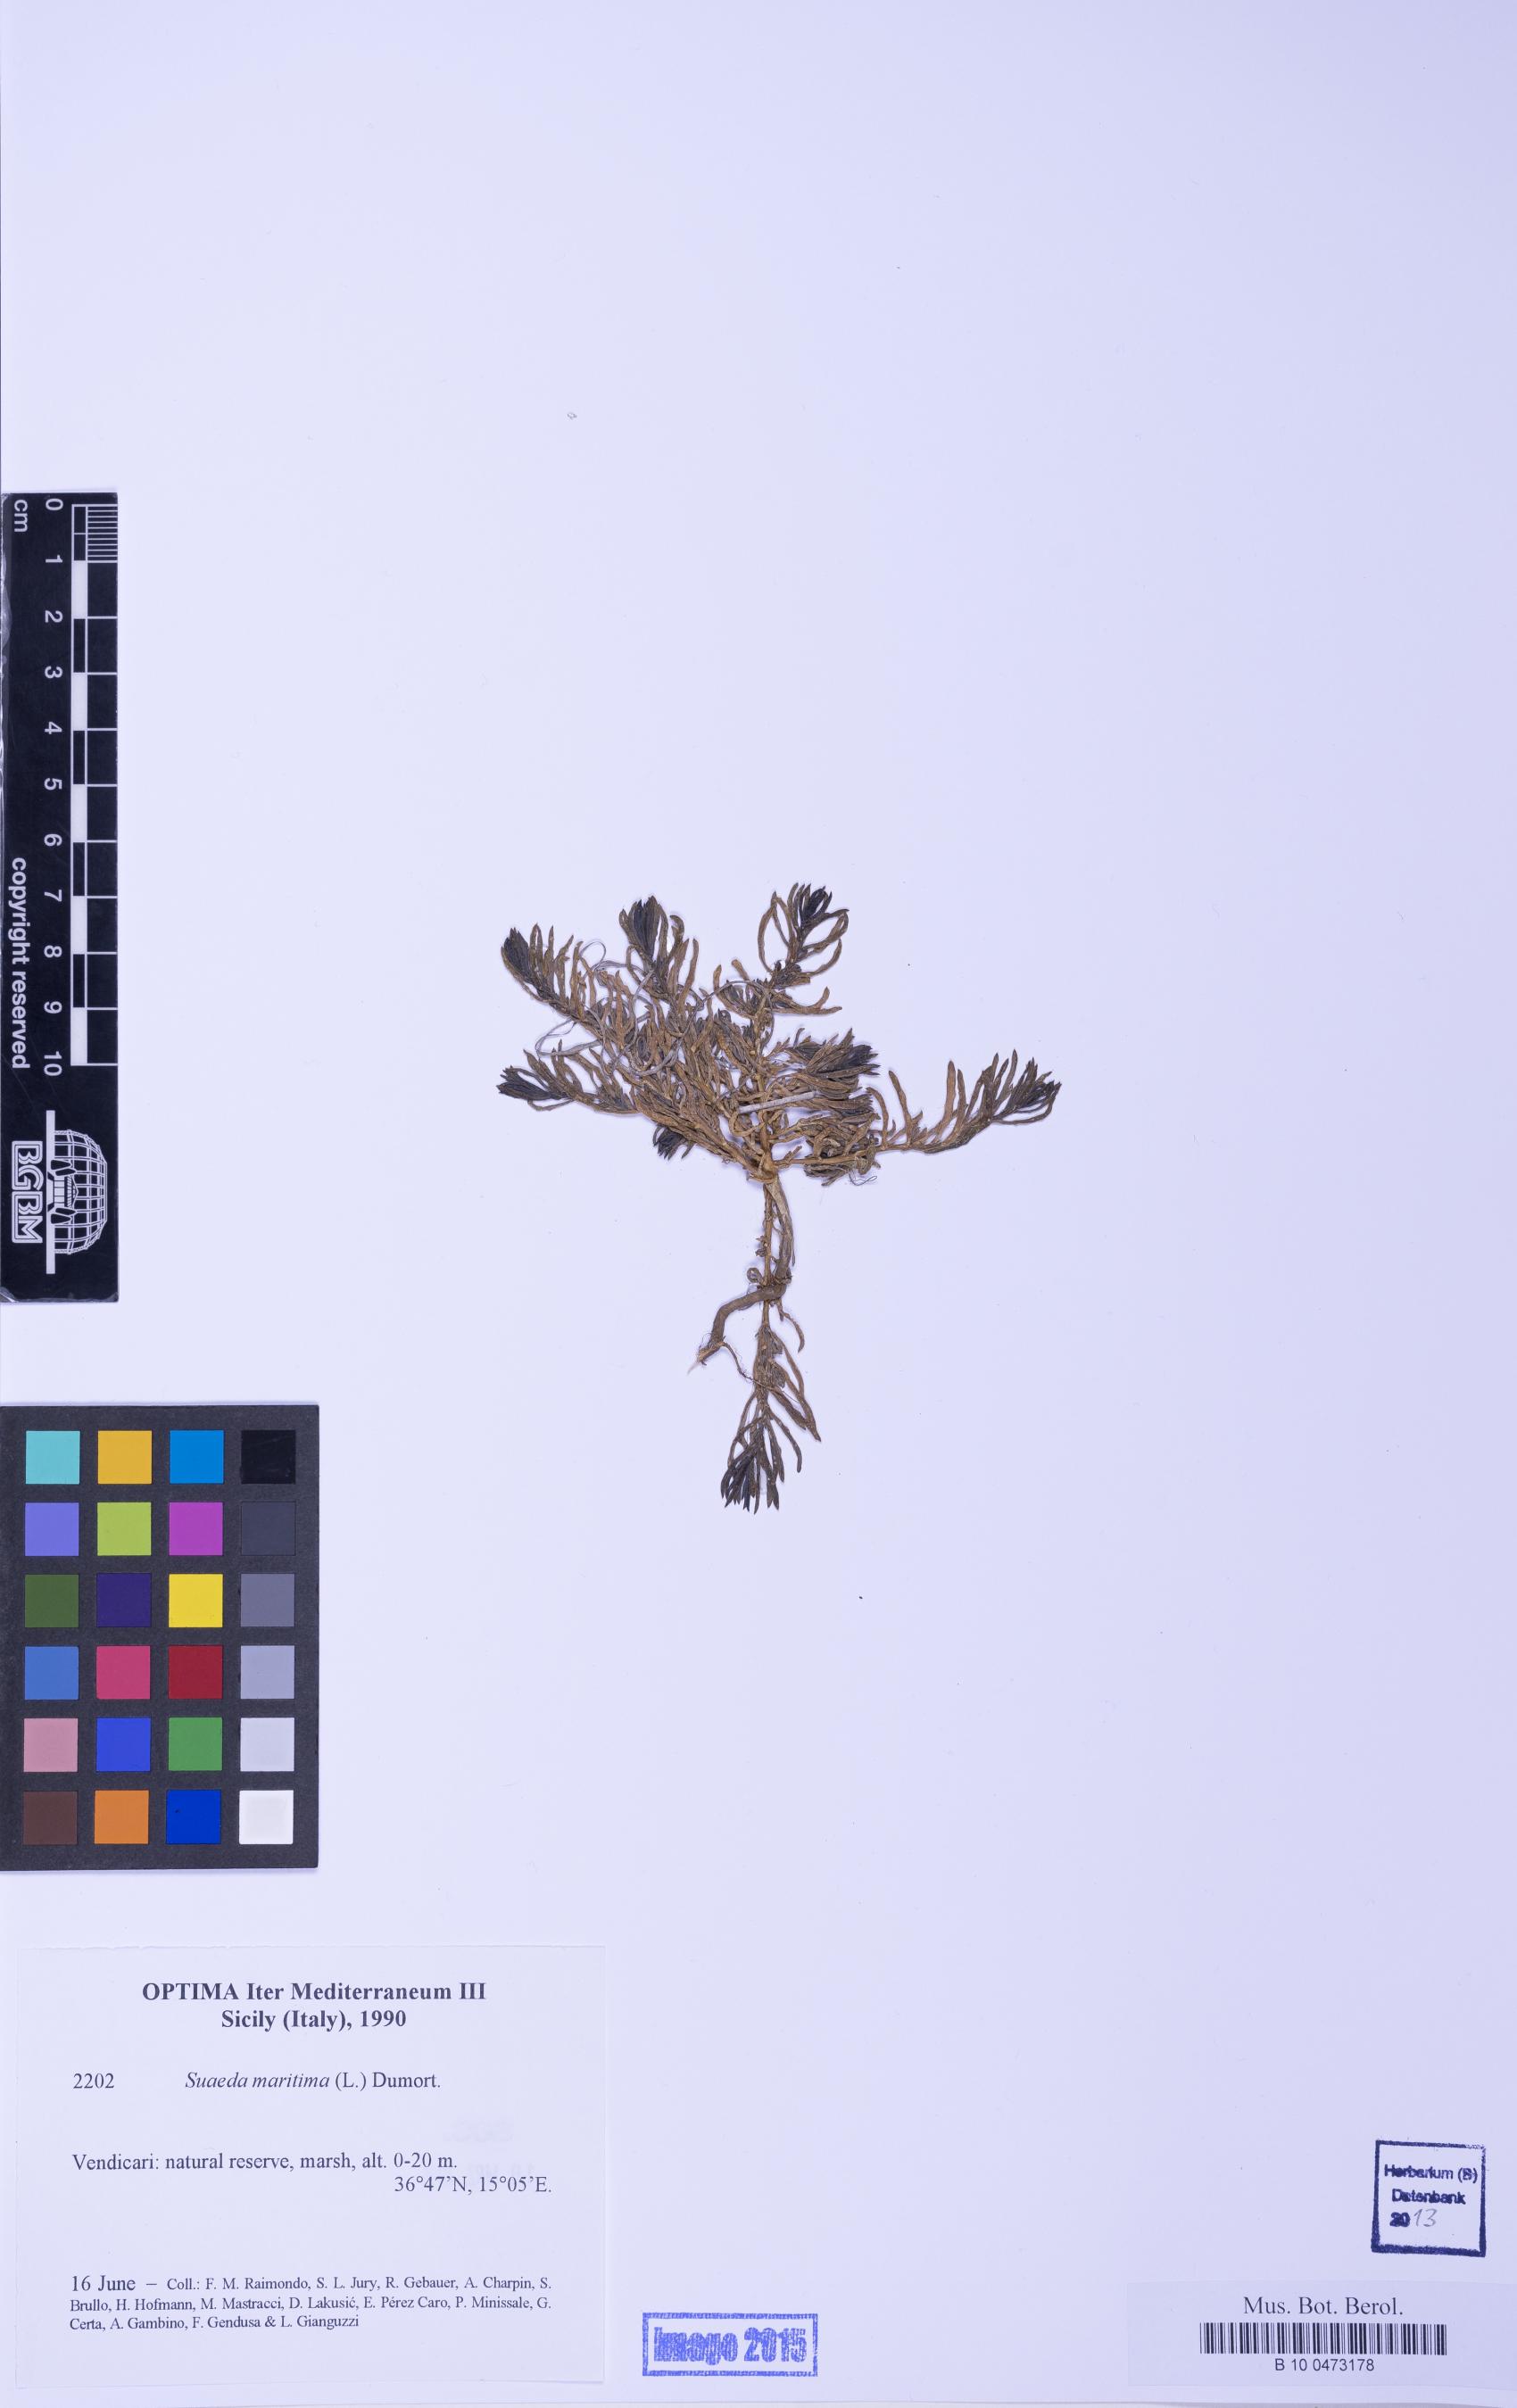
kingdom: Plantae
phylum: Tracheophyta
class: Magnoliopsida
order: Caryophyllales
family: Amaranthaceae
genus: Suaeda
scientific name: Suaeda maritima
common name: Annual sea-blite
